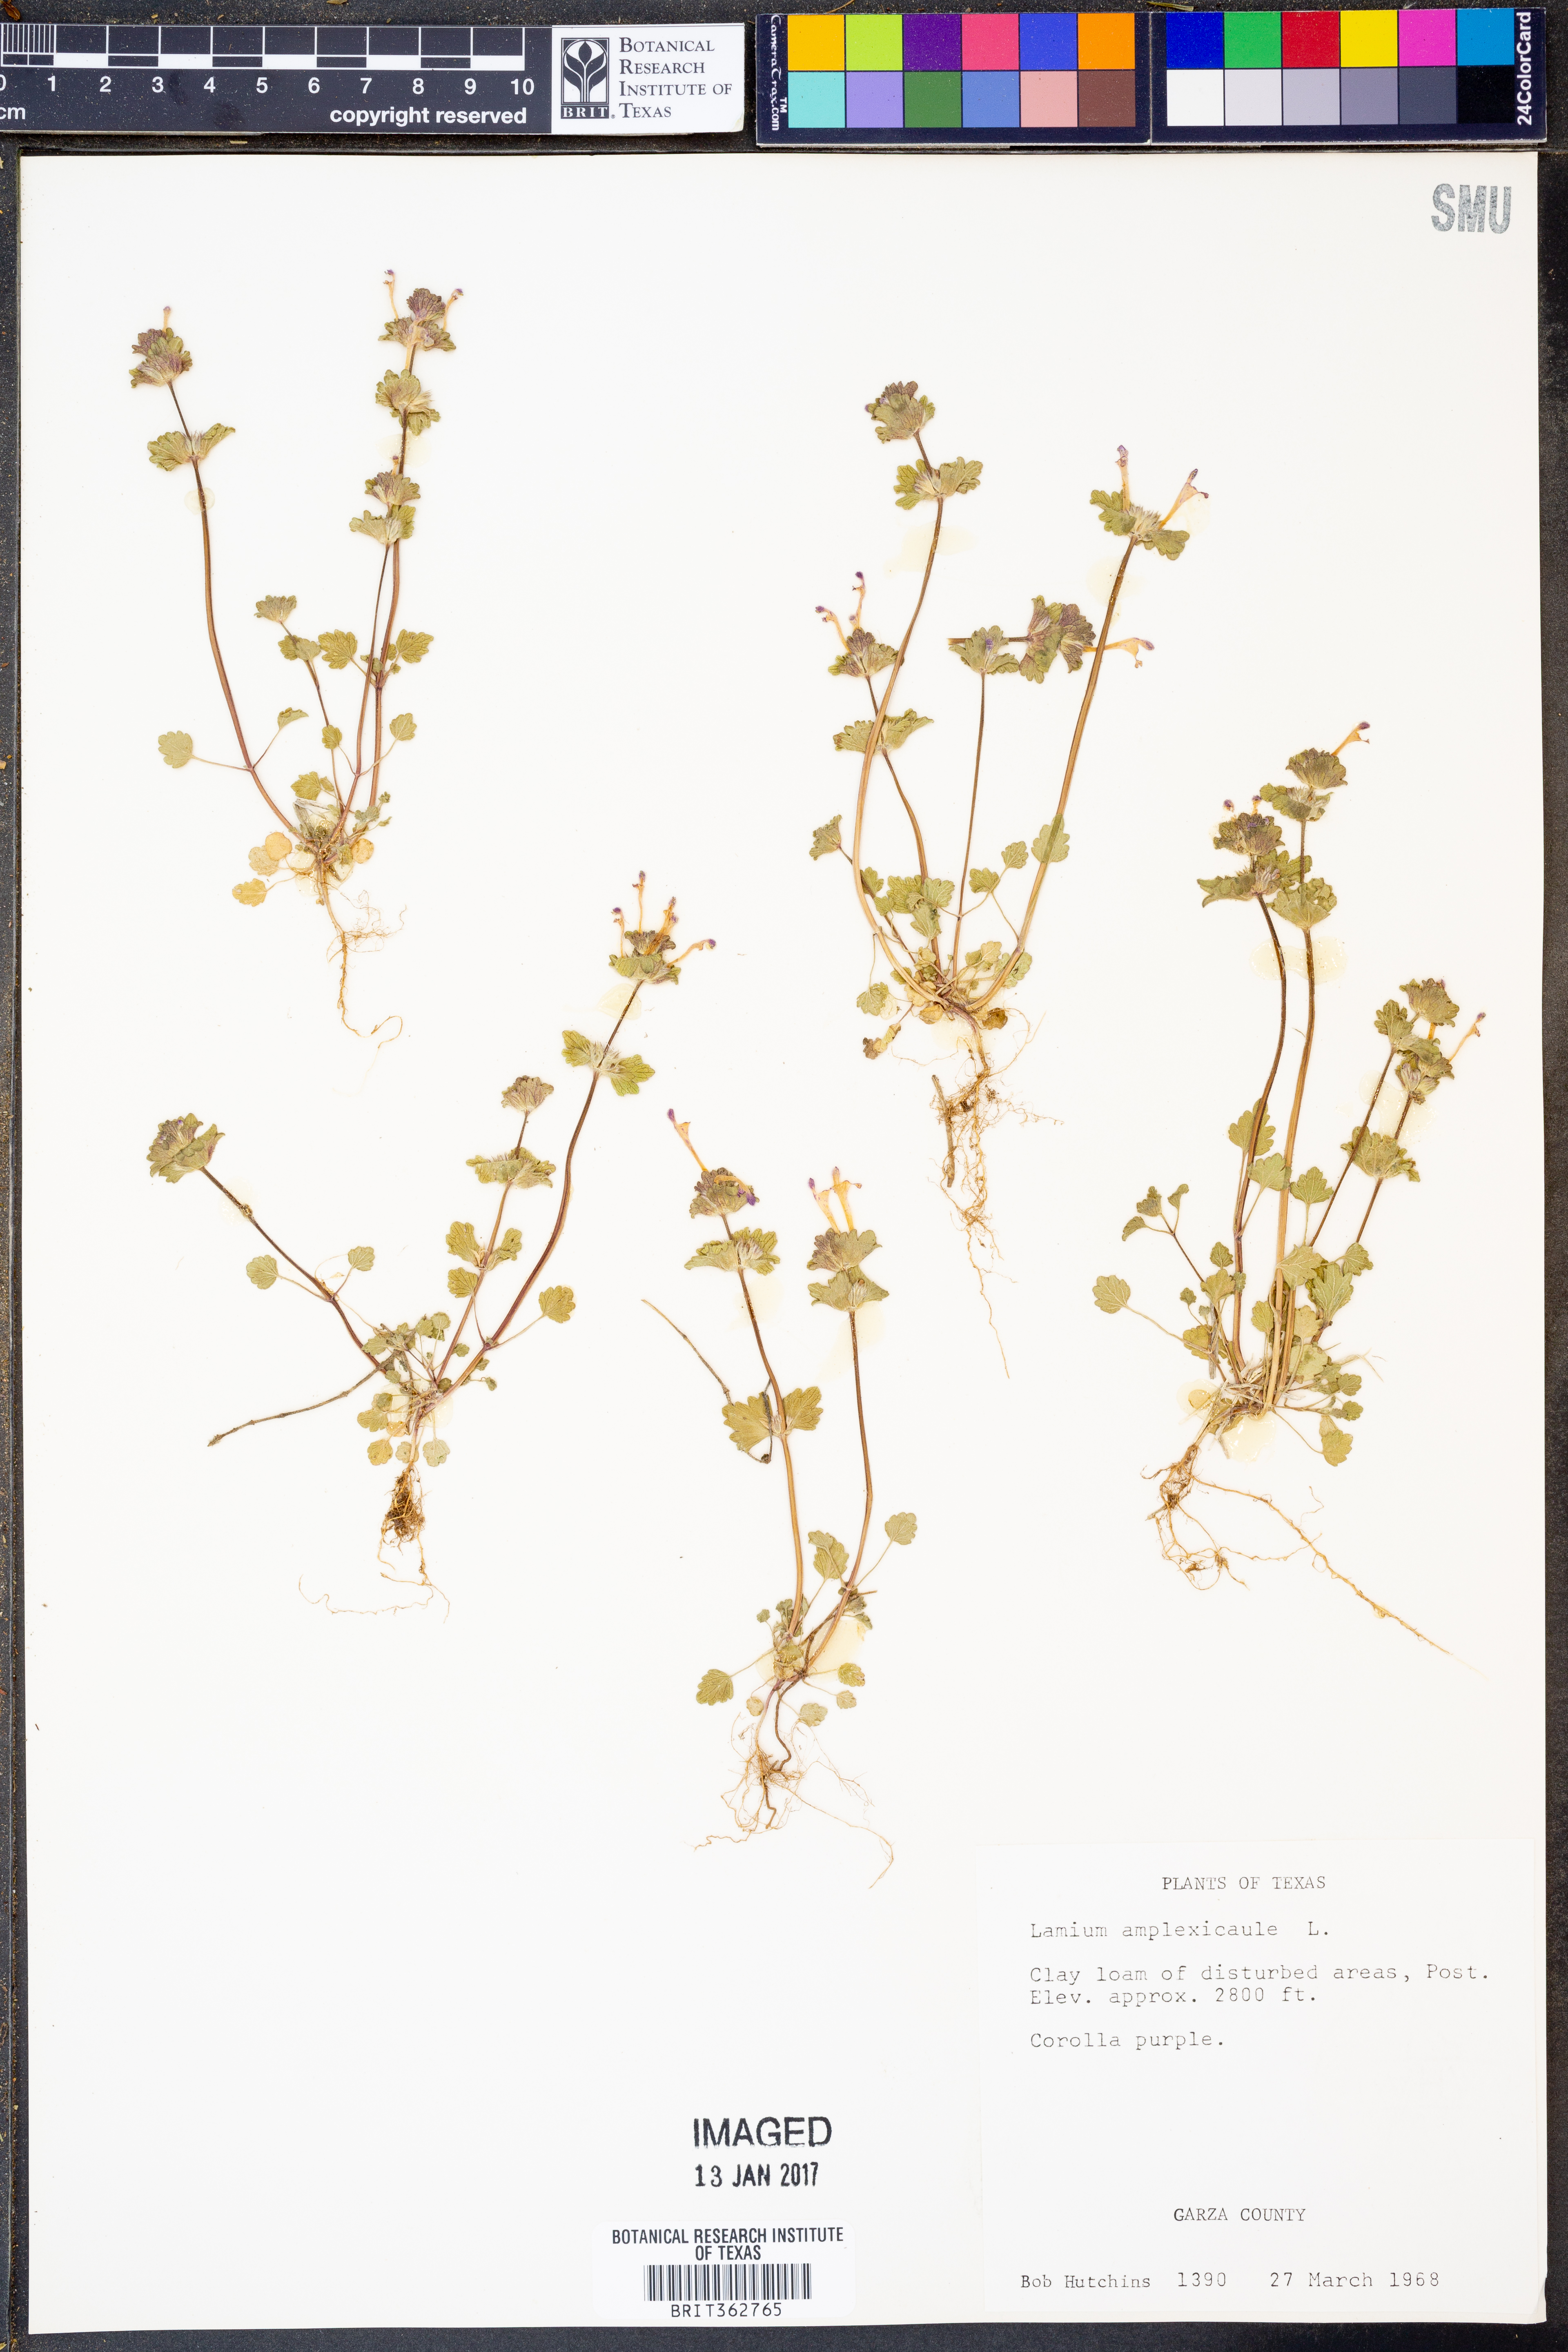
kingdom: Plantae
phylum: Tracheophyta
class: Magnoliopsida
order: Lamiales
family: Lamiaceae
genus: Lamium
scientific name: Lamium amplexicaule
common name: Henbit dead-nettle
